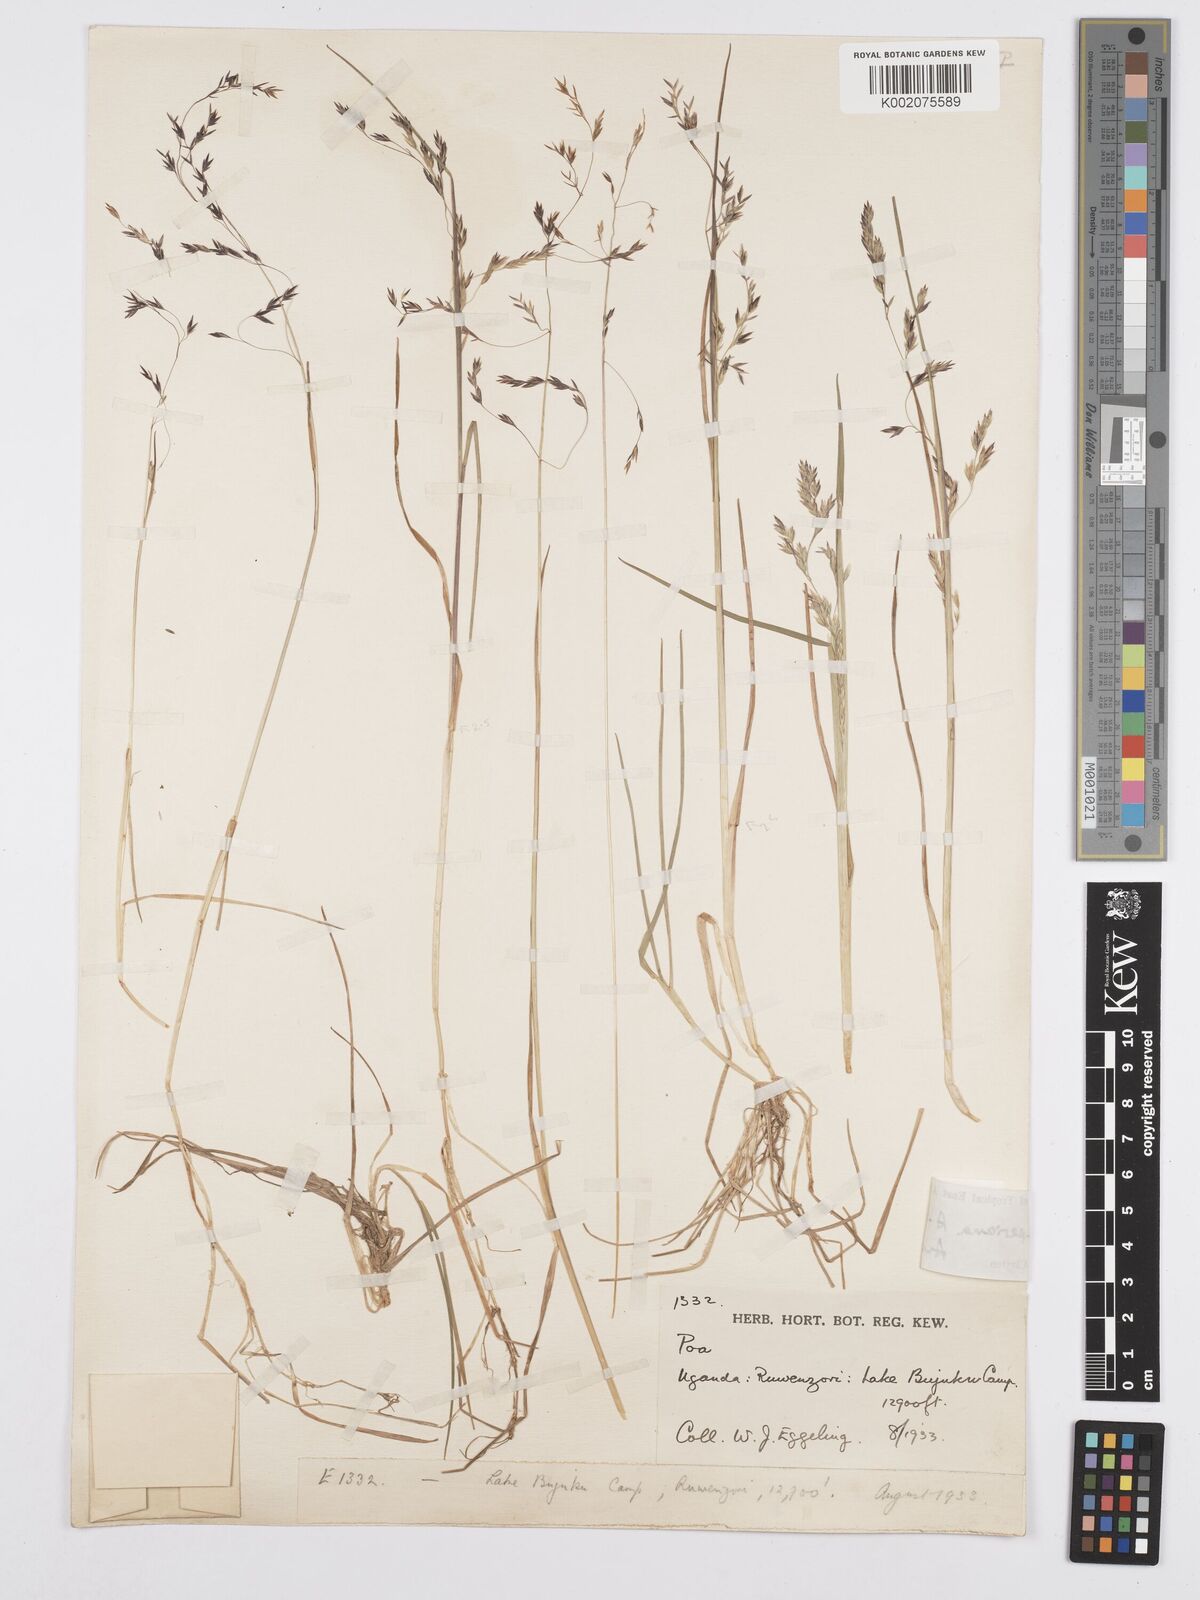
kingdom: Plantae
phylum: Tracheophyta
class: Liliopsida
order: Poales
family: Poaceae
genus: Poa
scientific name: Poa schimperiana
